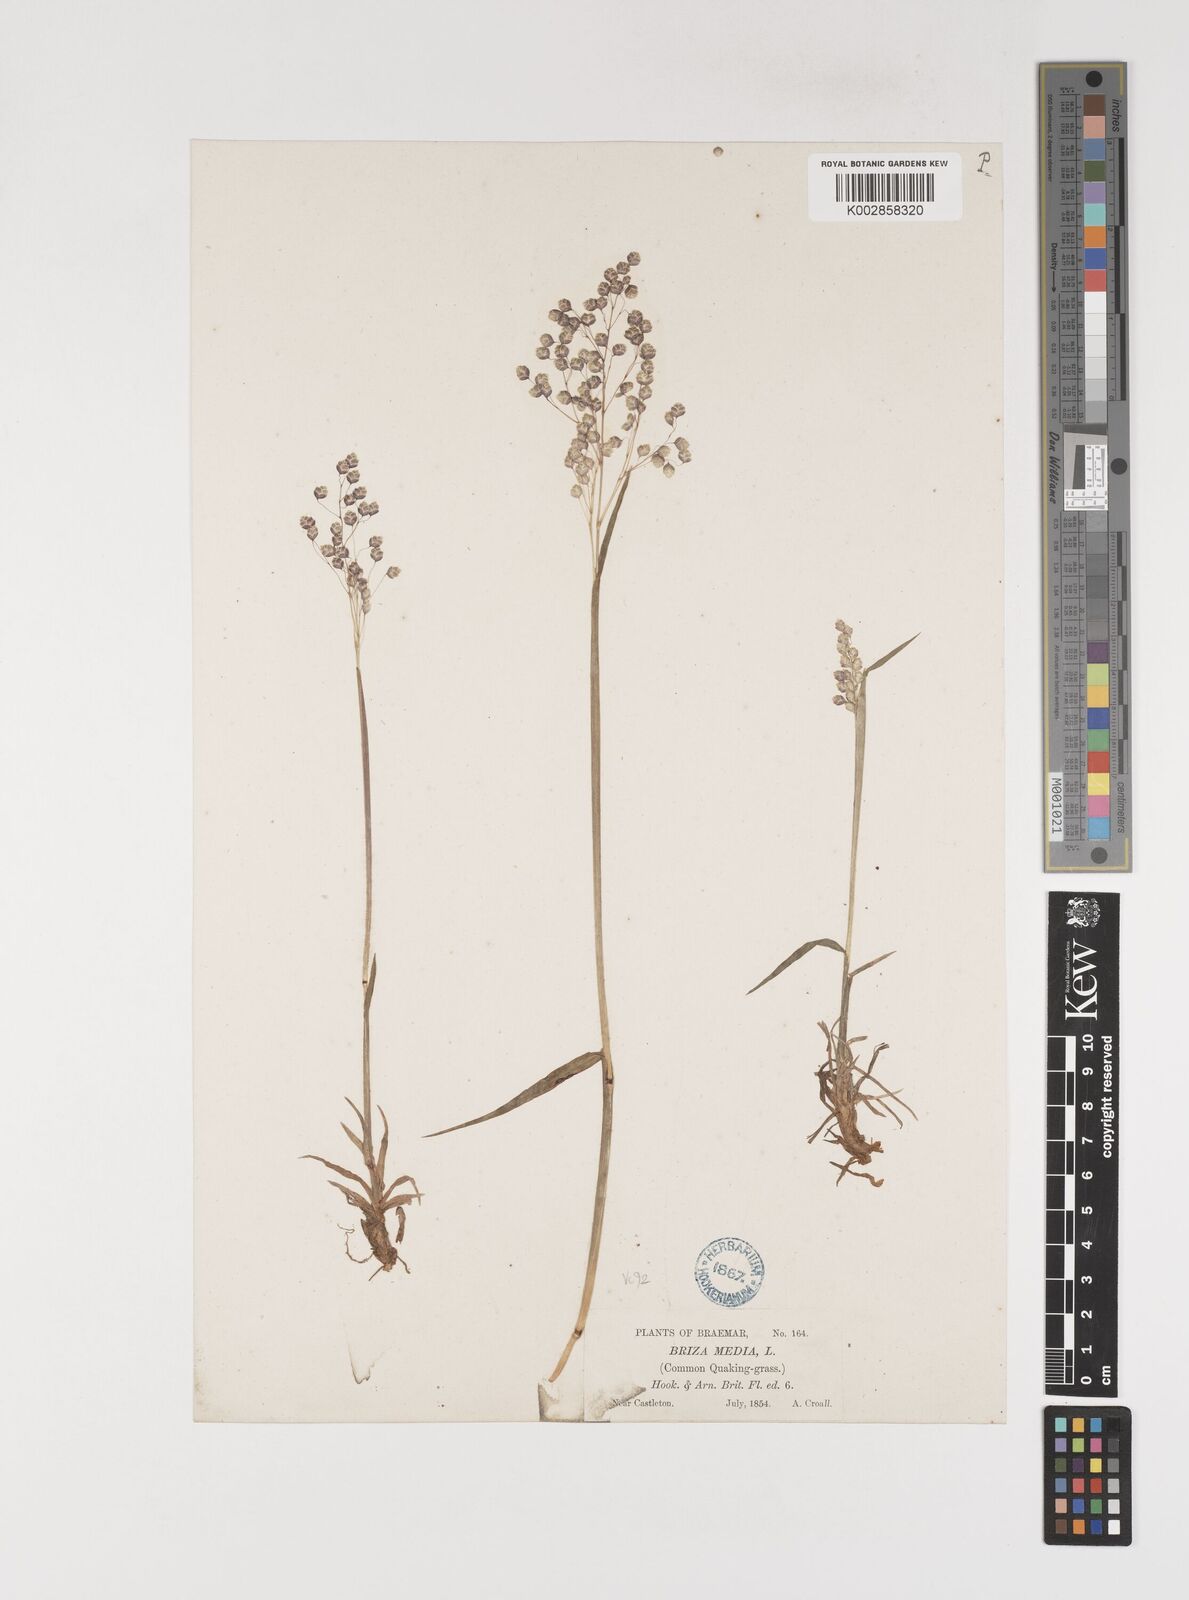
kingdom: Plantae
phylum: Tracheophyta
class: Liliopsida
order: Poales
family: Poaceae
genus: Briza
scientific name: Briza media
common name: Quaking grass
